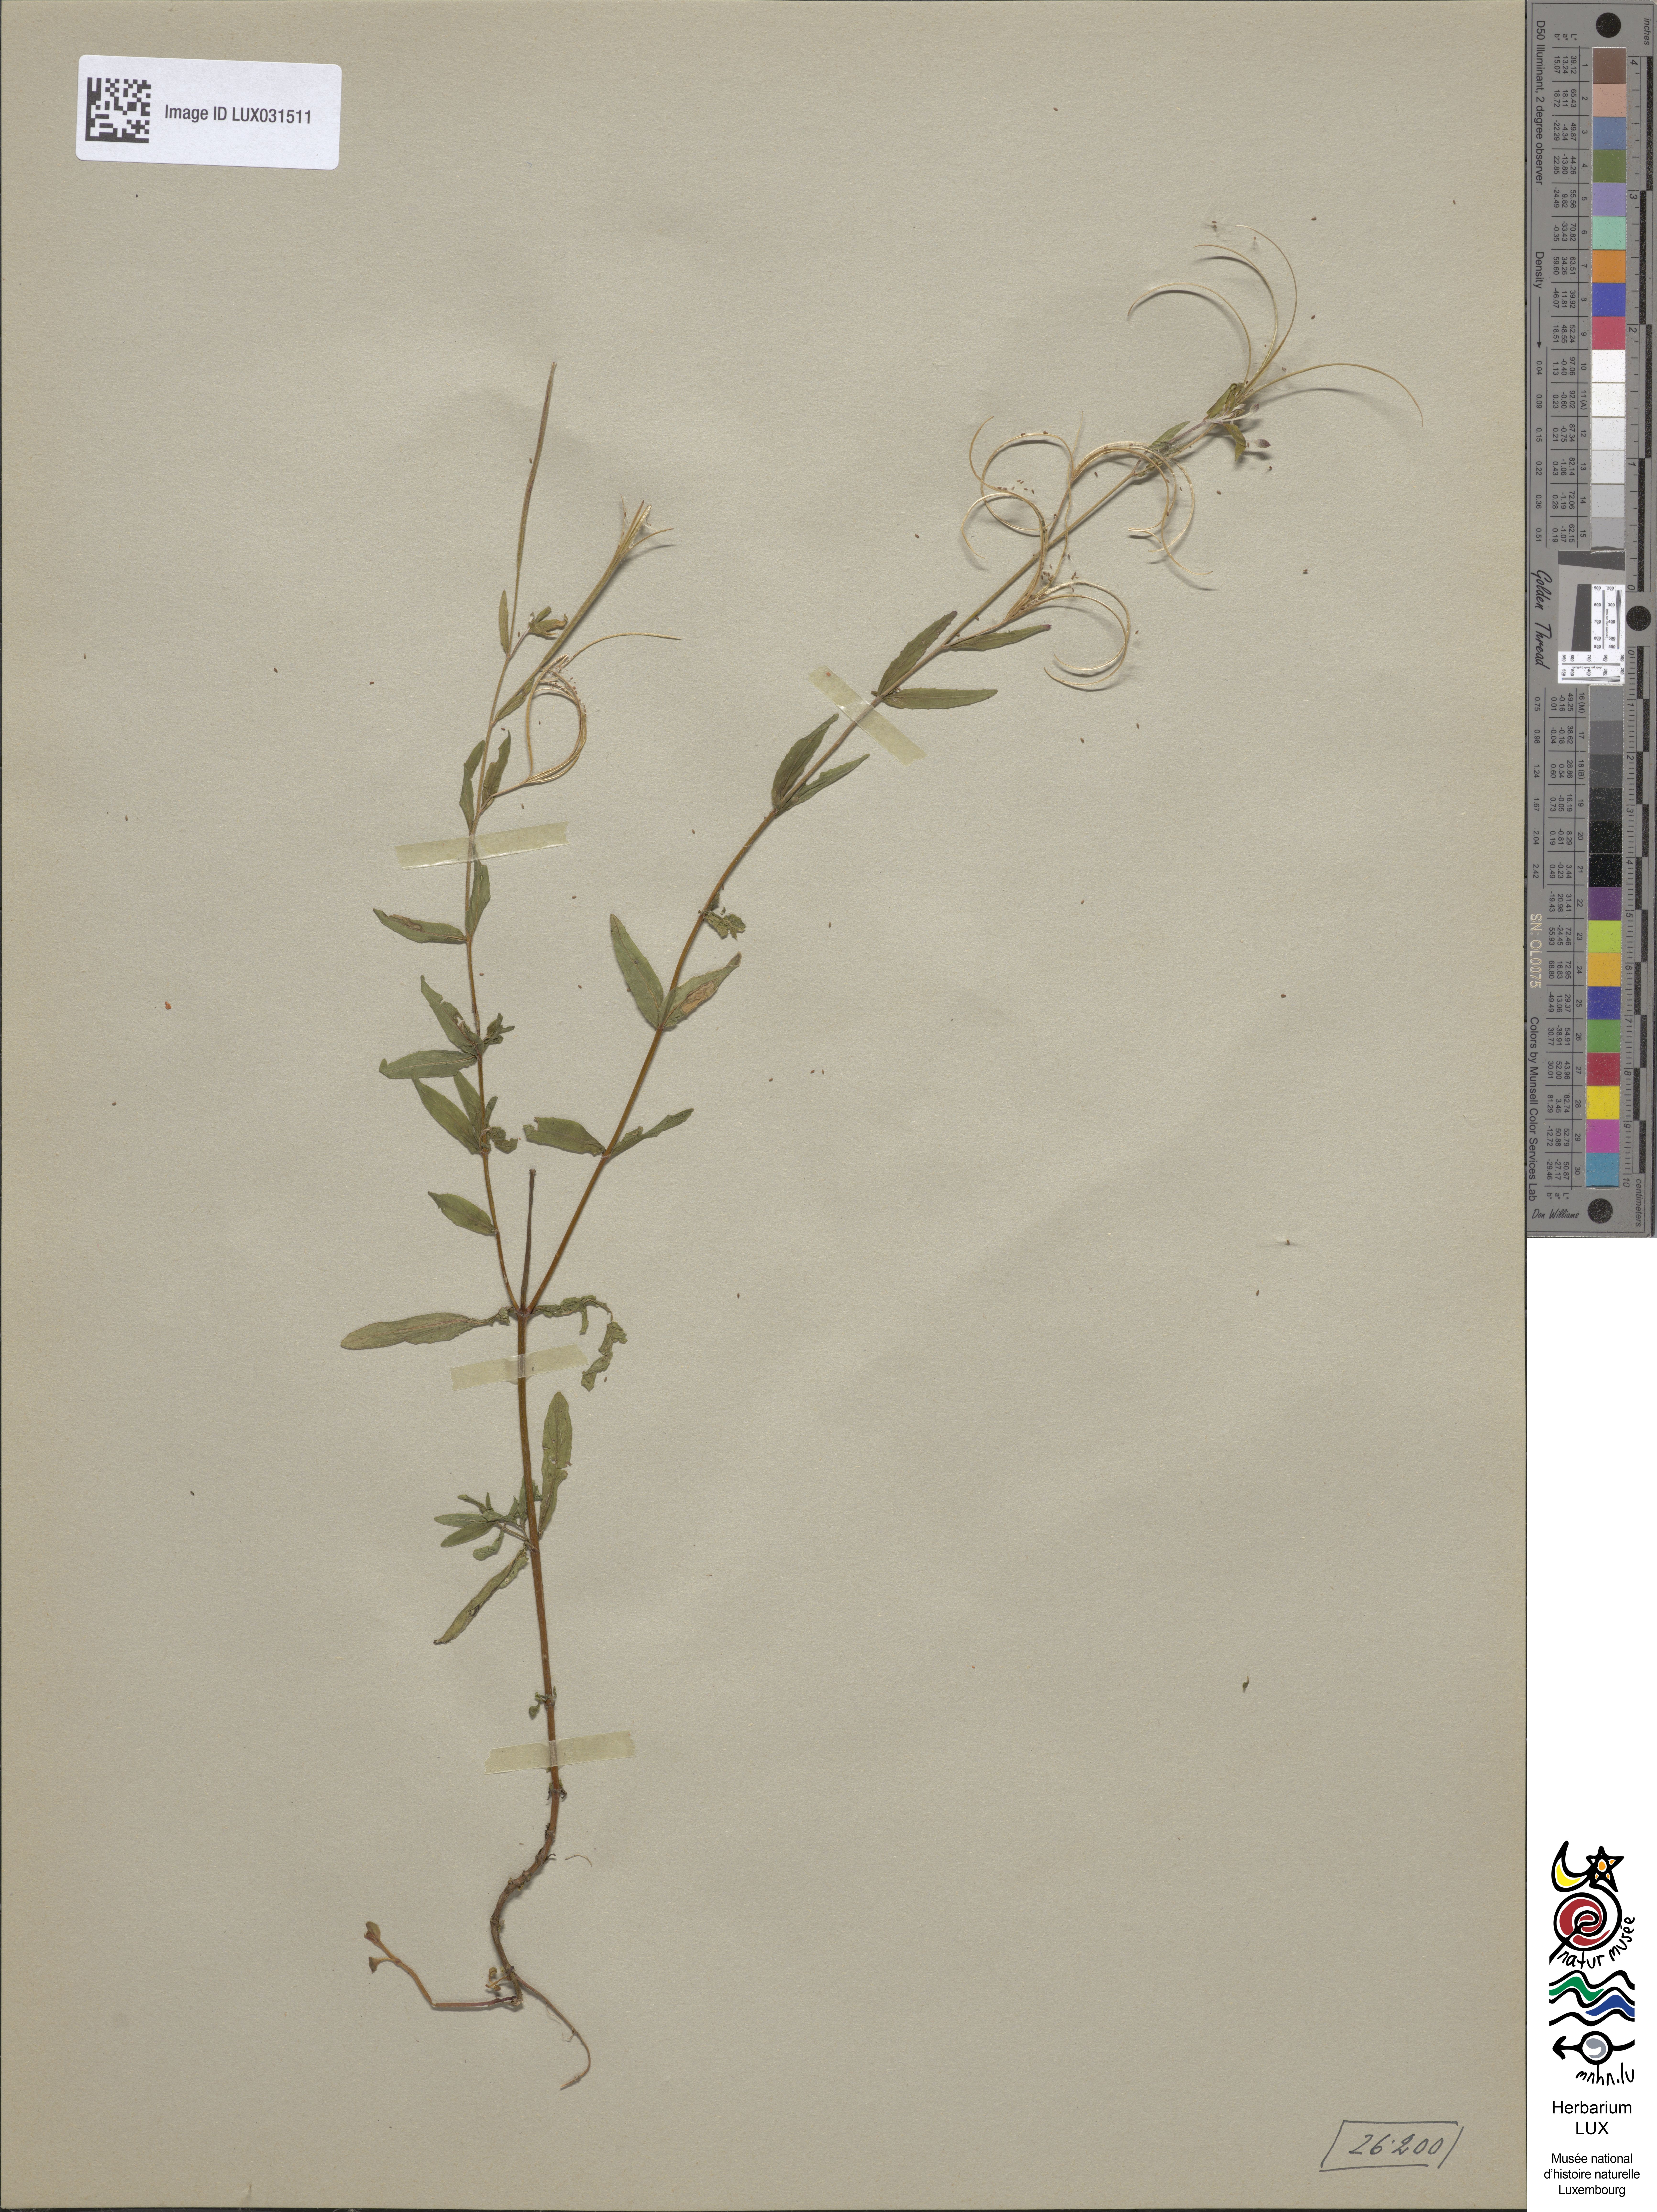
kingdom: Plantae
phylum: Tracheophyta
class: Magnoliopsida
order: Myrtales
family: Onagraceae
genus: Epilobium
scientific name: Epilobium obscurum
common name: Short-fruited willowherb
